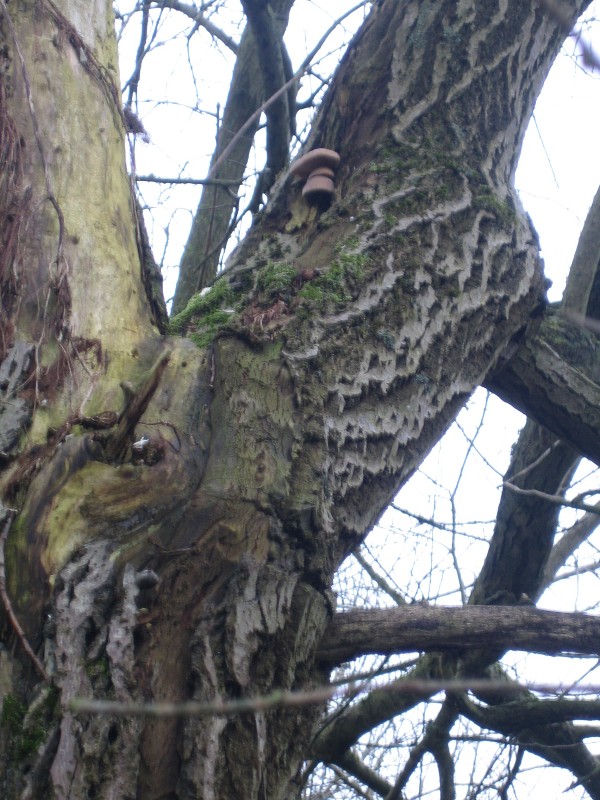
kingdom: Fungi
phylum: Basidiomycota
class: Agaricomycetes
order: Agaricales
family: Pleurotaceae
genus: Pleurotus
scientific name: Pleurotus ostreatus
